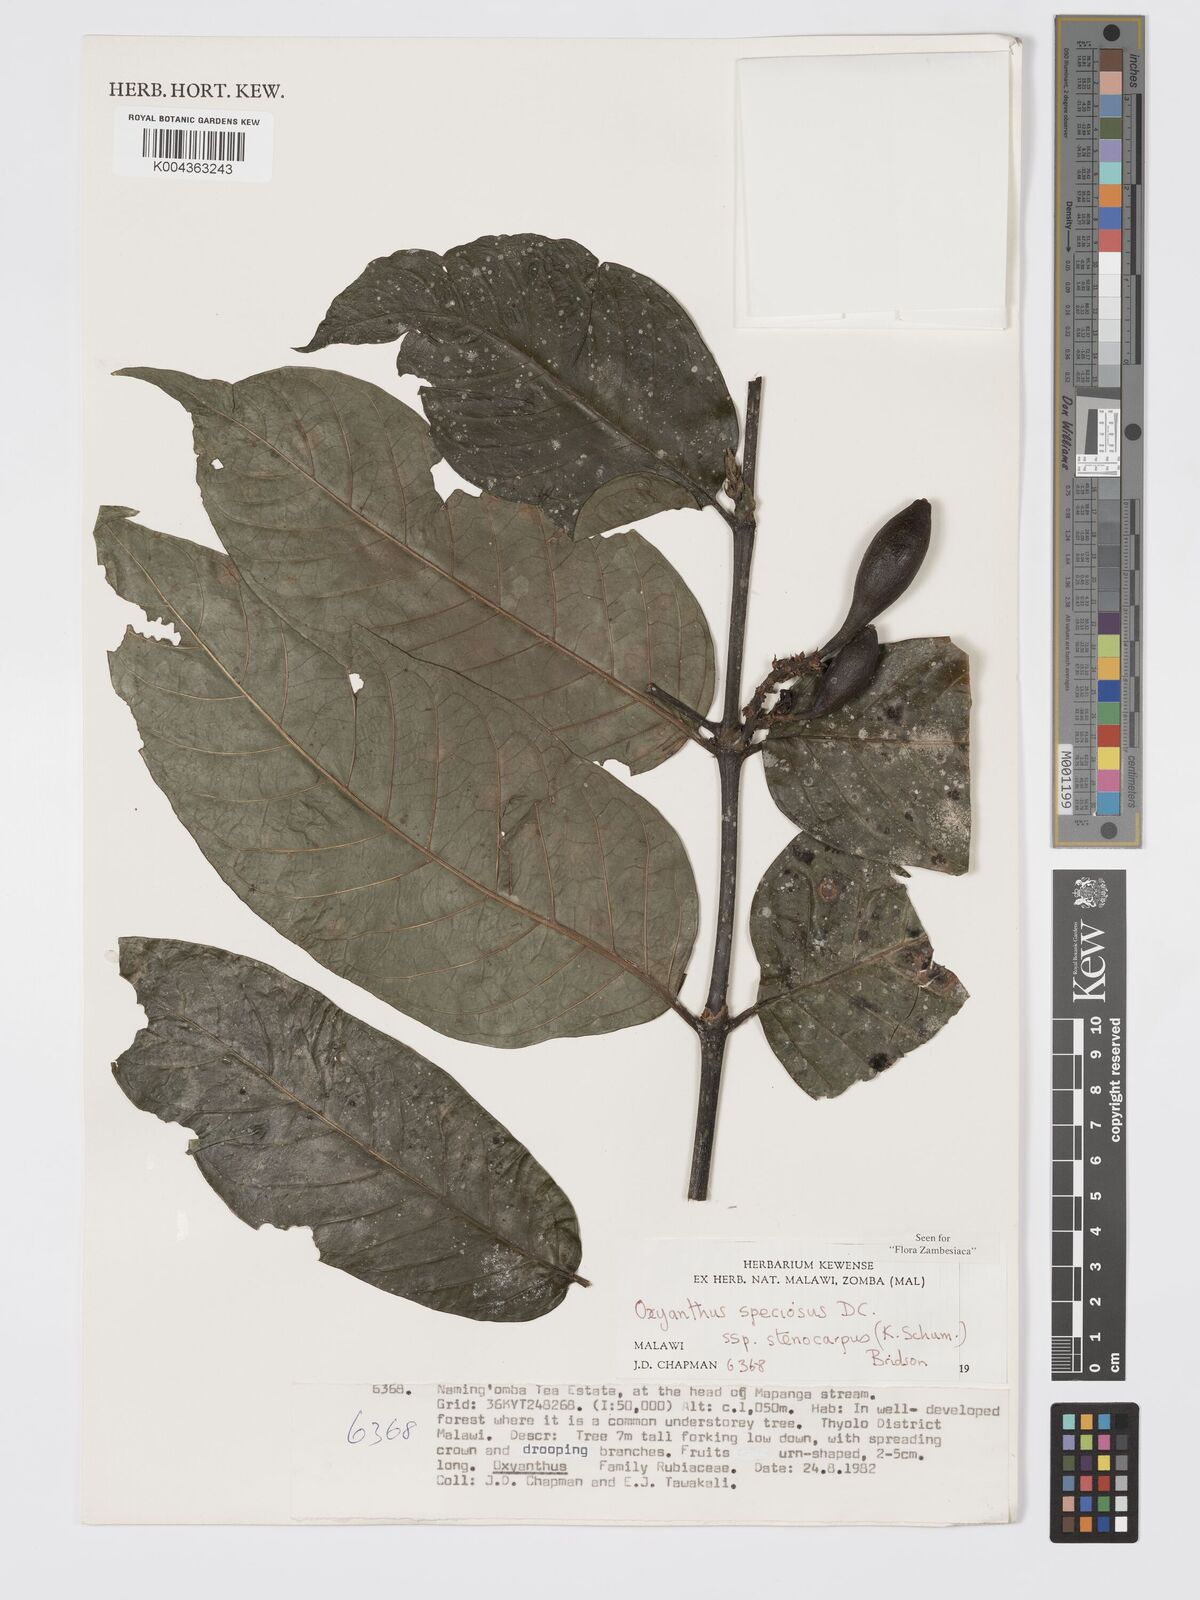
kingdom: Plantae
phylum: Tracheophyta
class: Magnoliopsida
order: Gentianales
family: Rubiaceae
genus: Oxyanthus
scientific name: Oxyanthus speciosus
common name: Whipstick loquat
